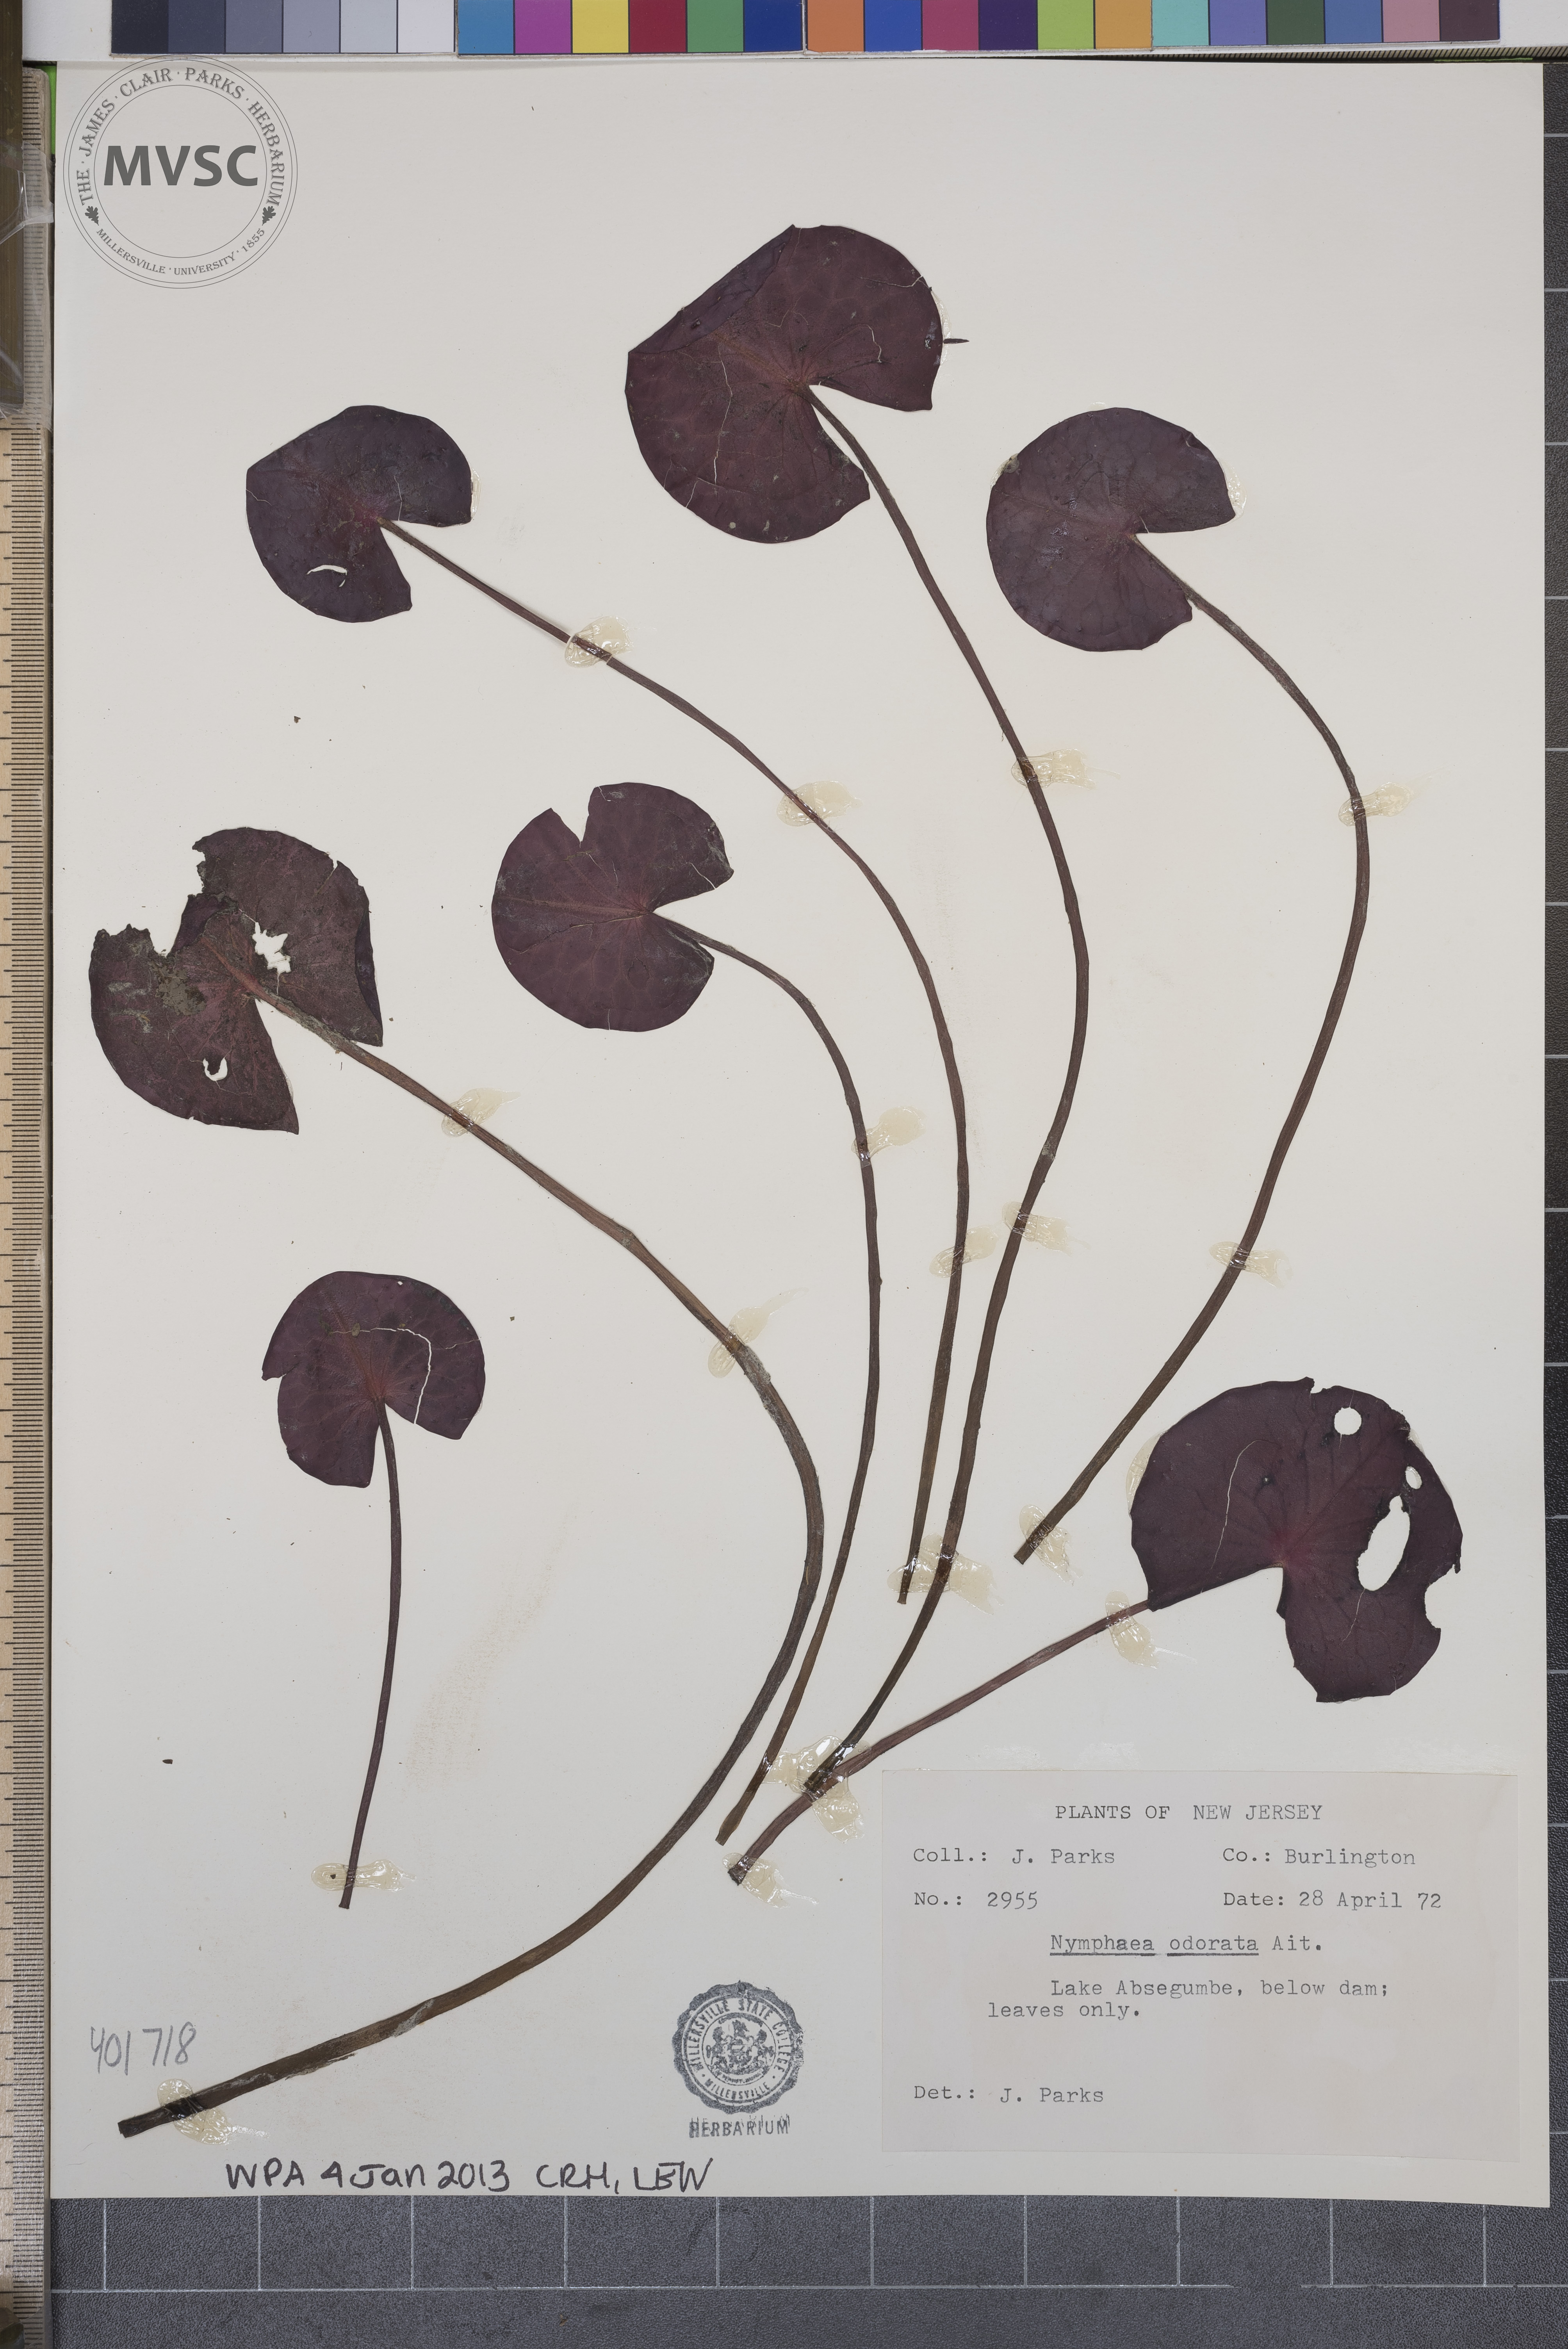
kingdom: Plantae
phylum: Tracheophyta
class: Magnoliopsida
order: Nymphaeales
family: Nymphaeaceae
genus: Nymphaea
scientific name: Nymphaea odorata
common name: Water-lily
